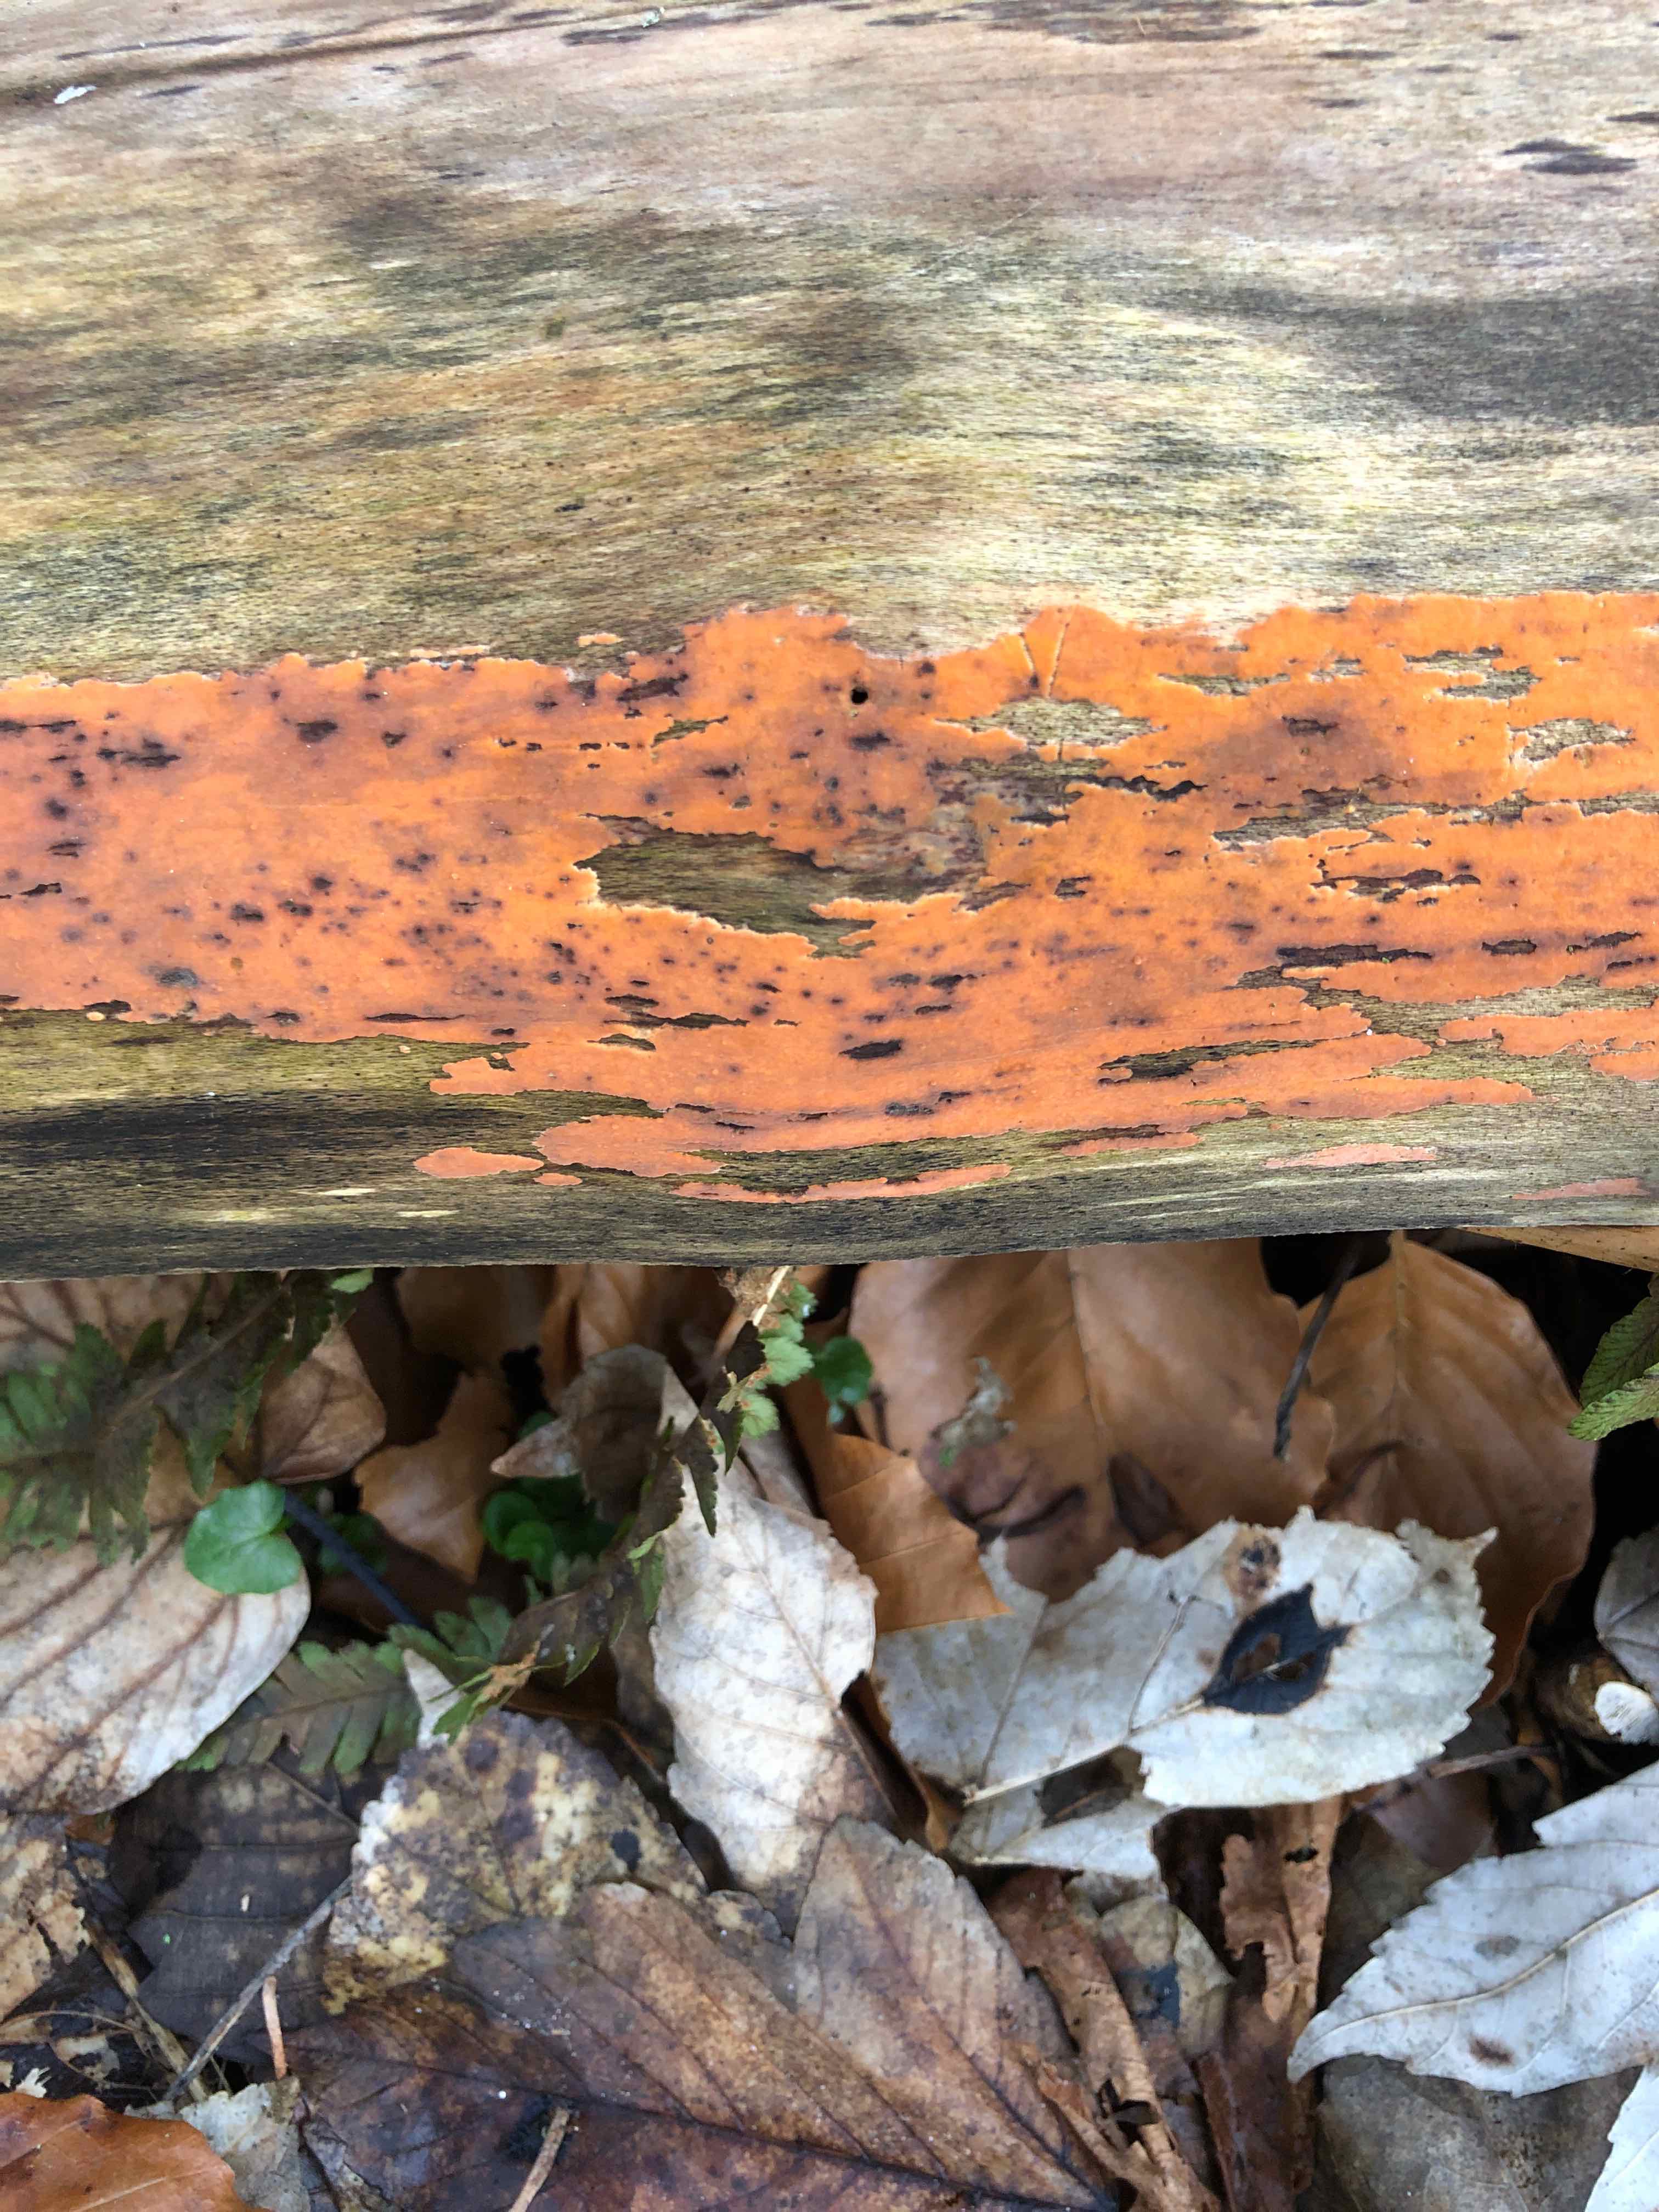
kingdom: Fungi
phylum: Basidiomycota
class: Agaricomycetes
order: Russulales
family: Peniophoraceae
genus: Peniophora
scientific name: Peniophora incarnata
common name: laksefarvet voksskind
